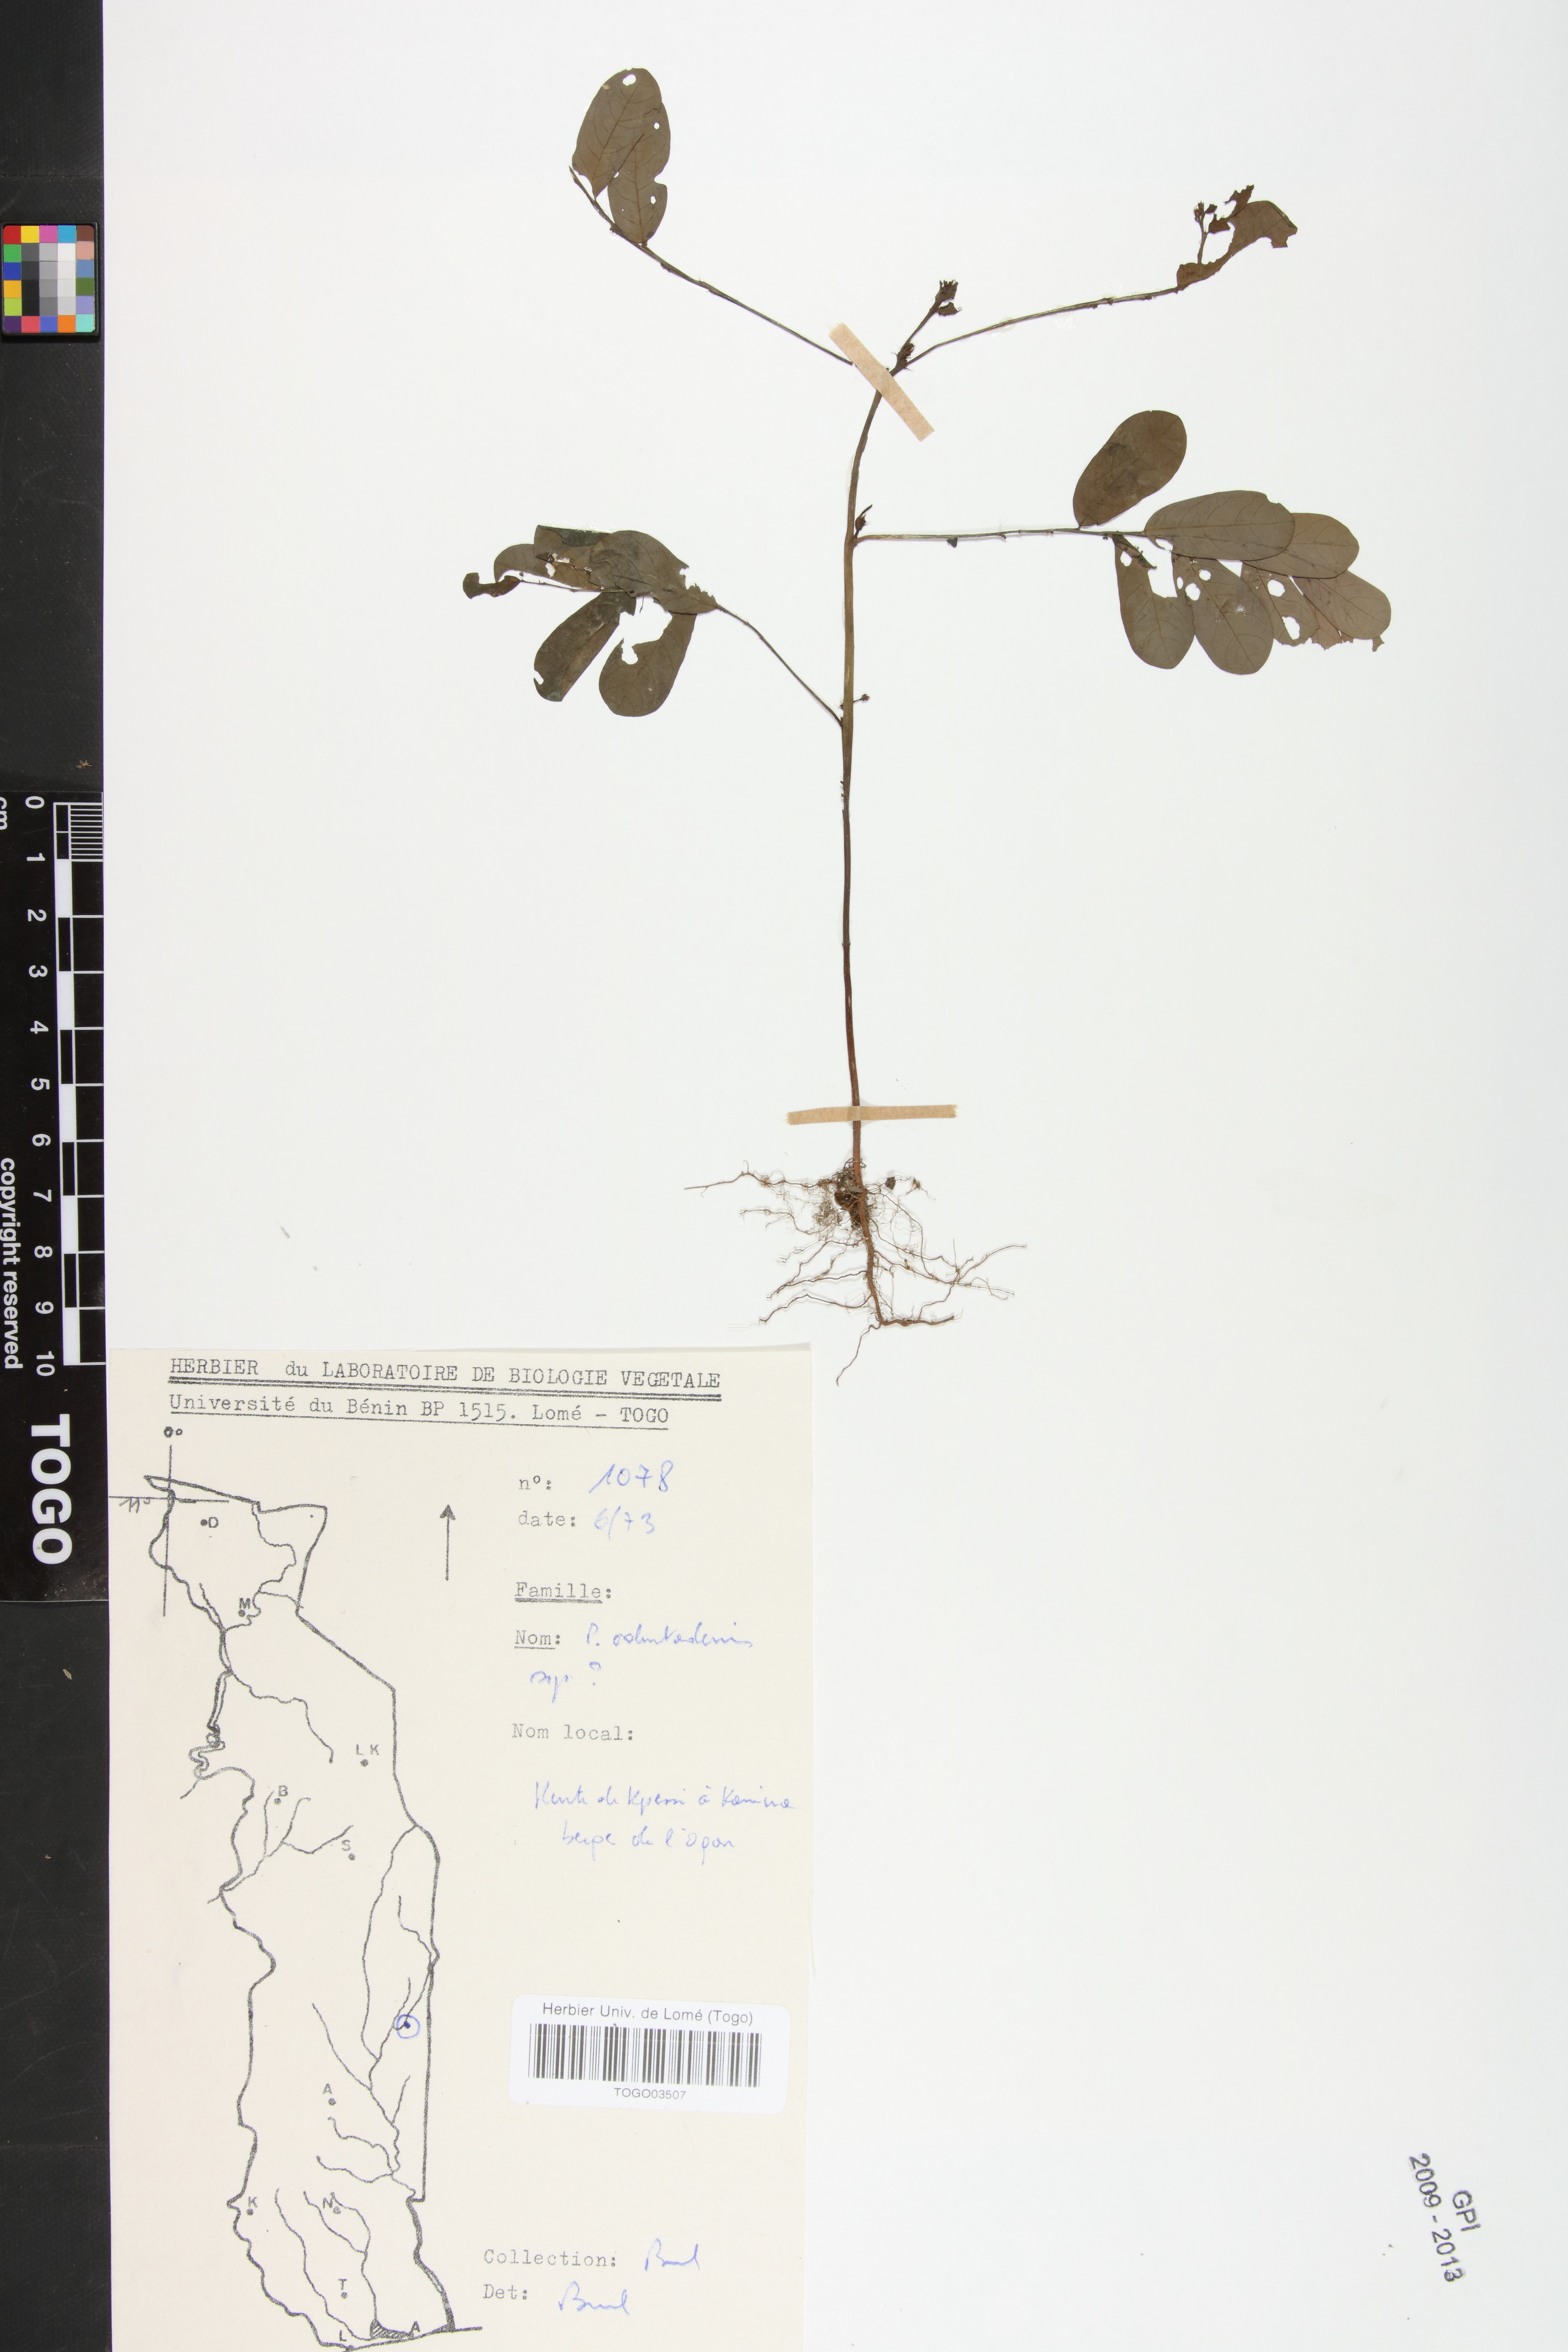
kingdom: Plantae
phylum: Tracheophyta
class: Magnoliopsida
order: Malpighiales
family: Phyllanthaceae
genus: Phyllanthus
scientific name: Phyllanthus odontadenius
